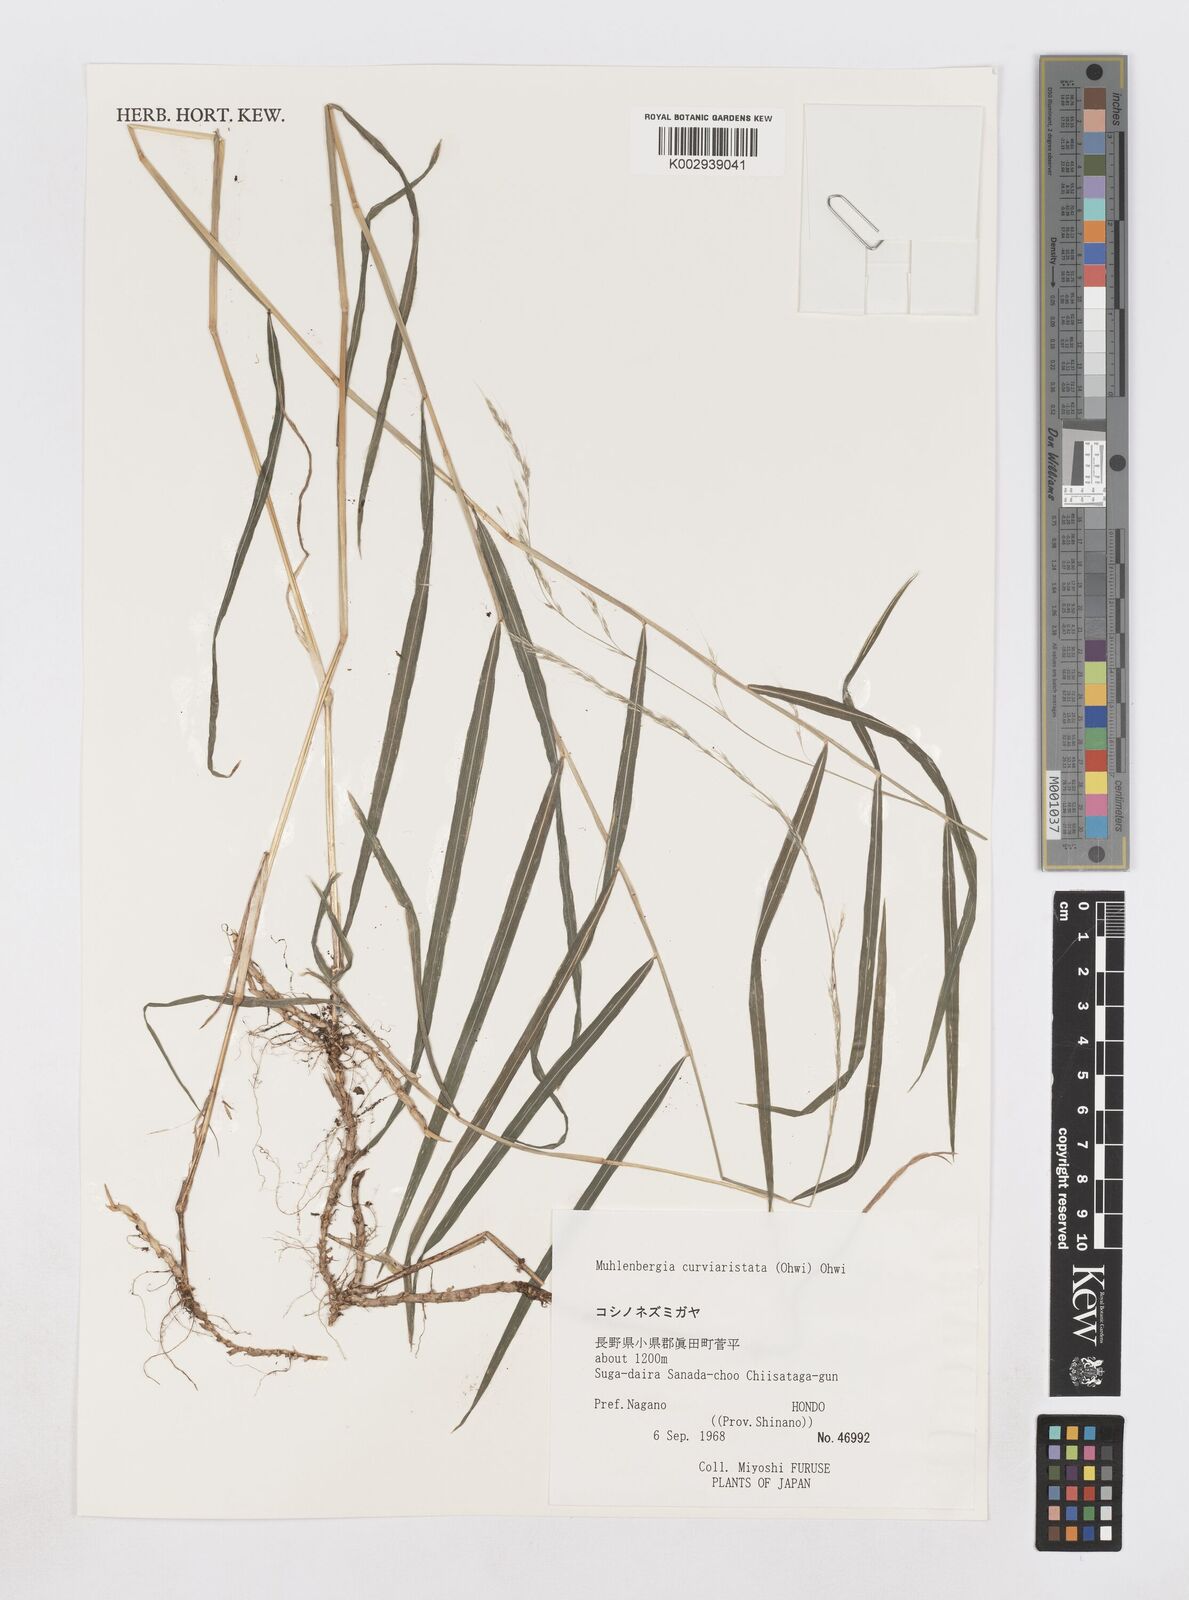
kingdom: Plantae
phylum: Tracheophyta
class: Liliopsida
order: Poales
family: Poaceae
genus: Muhlenbergia
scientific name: Muhlenbergia curviaristata
